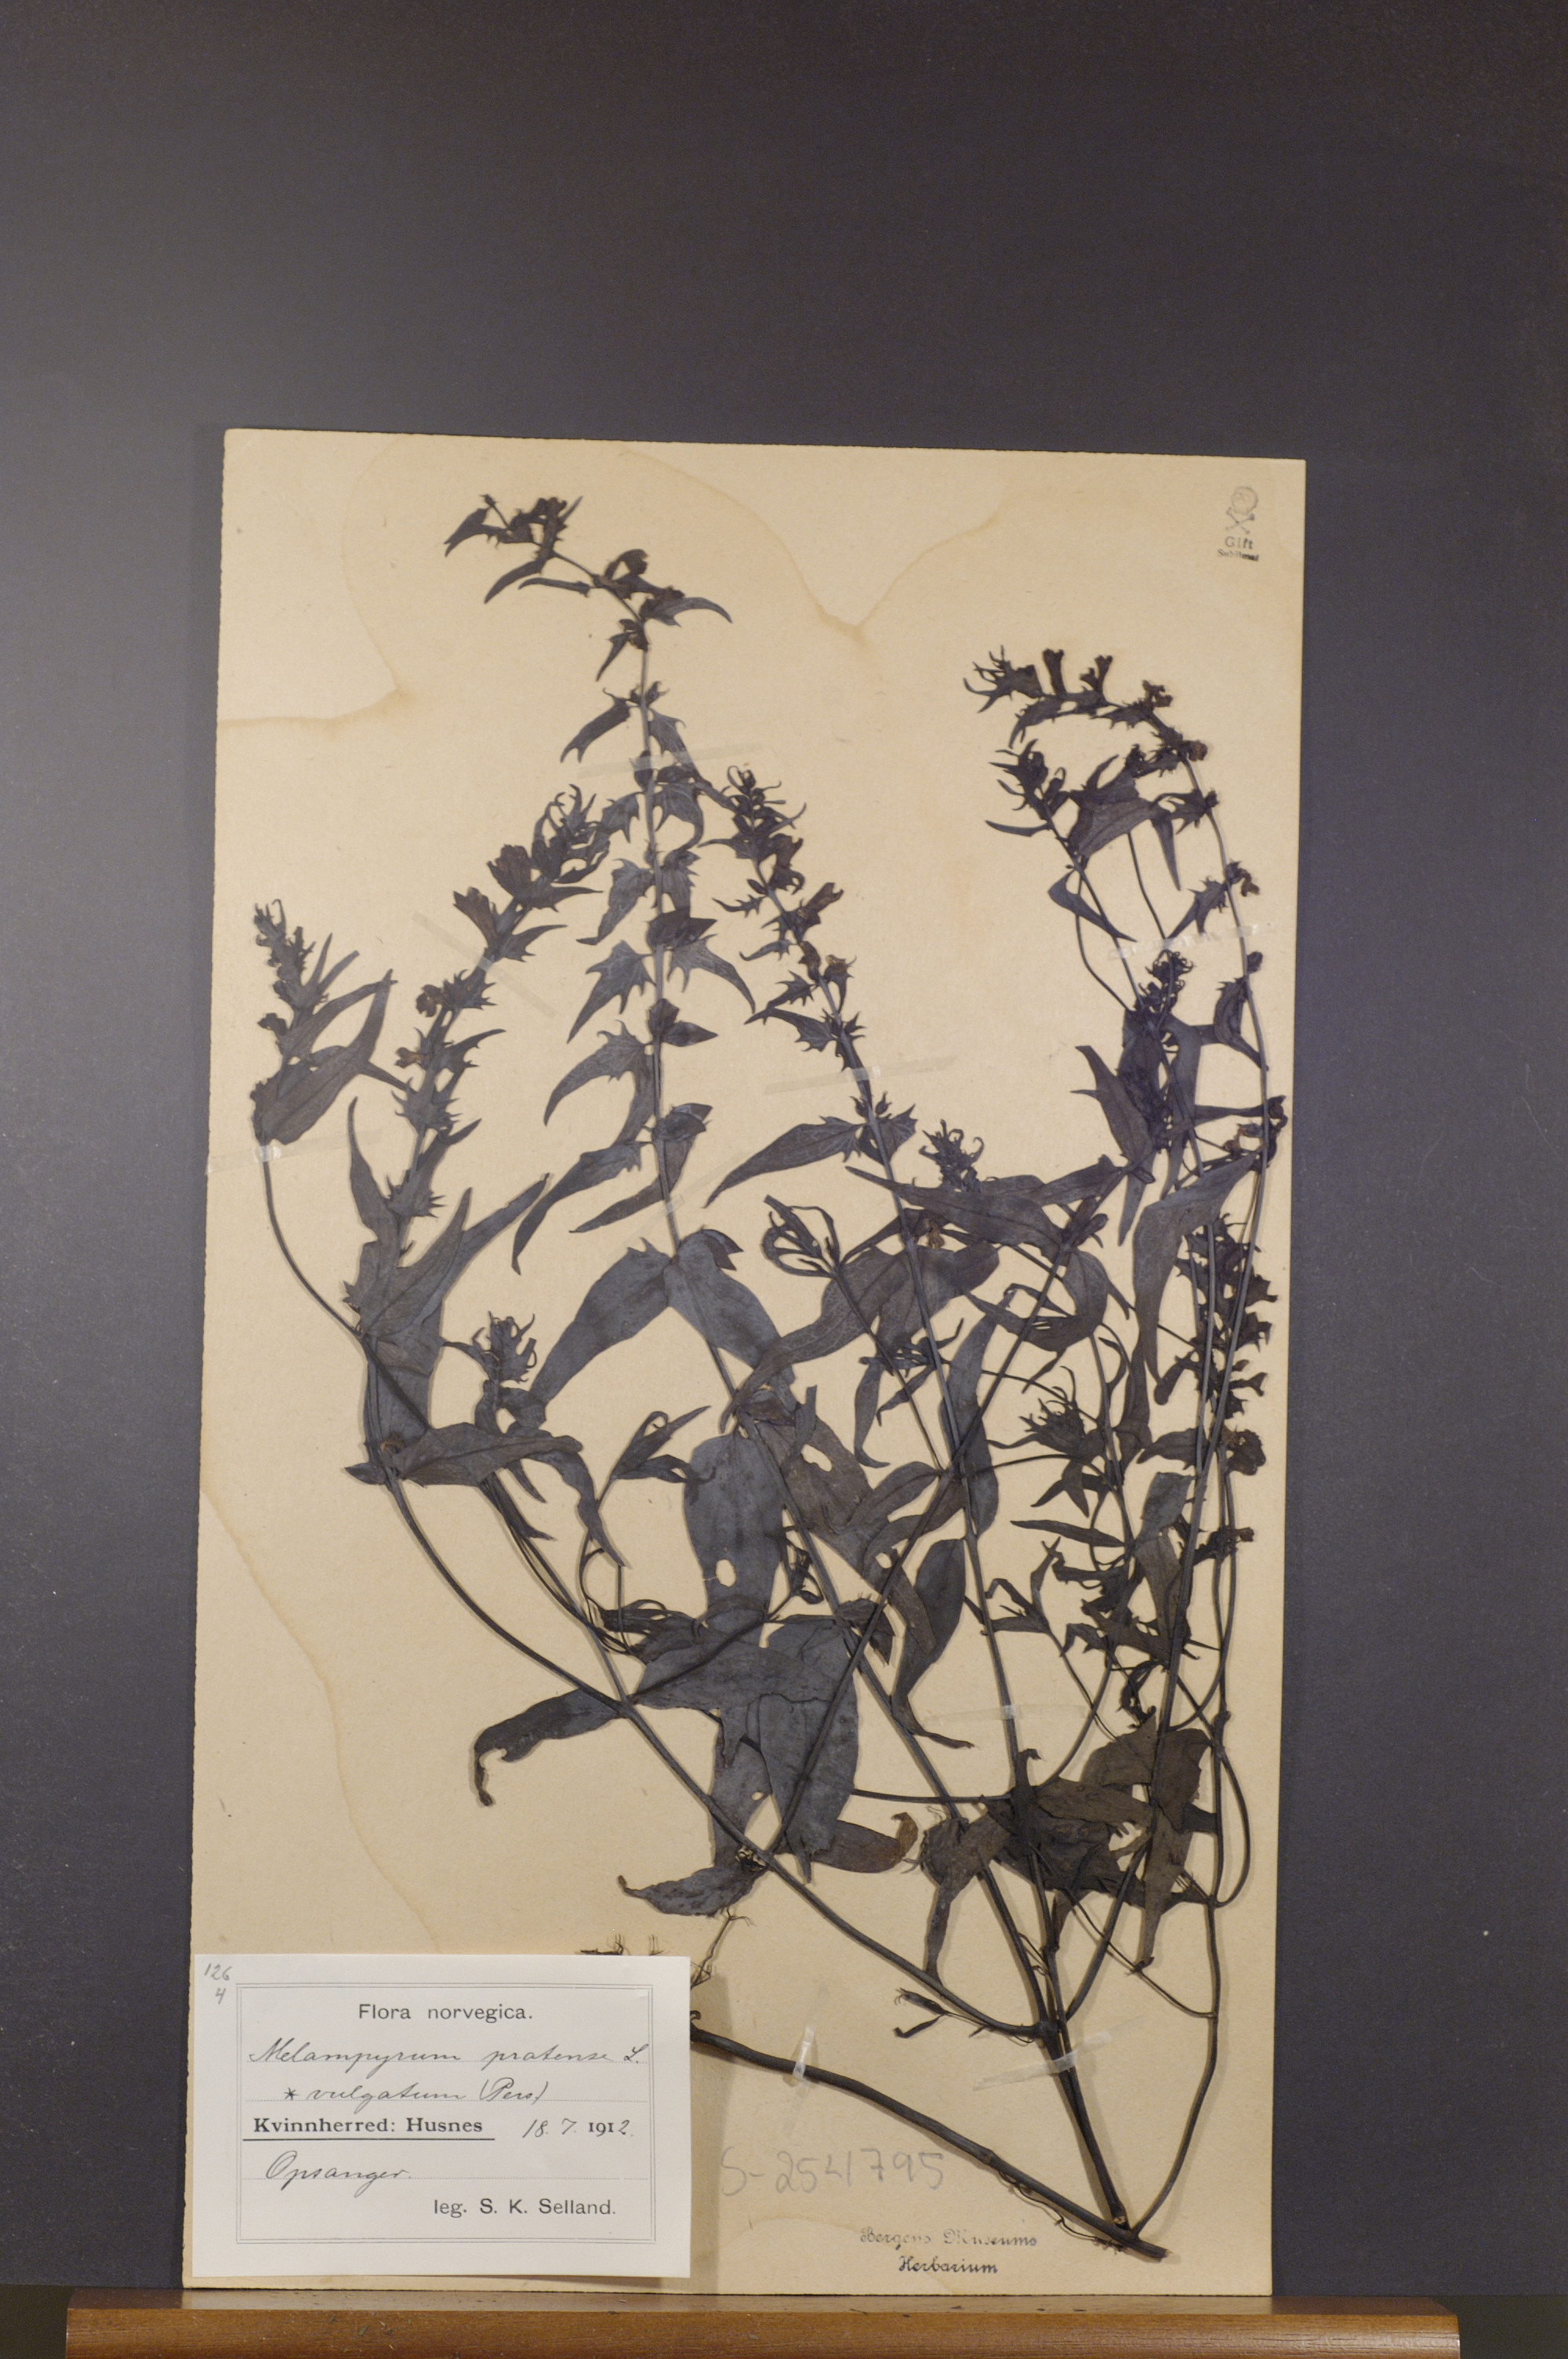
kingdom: Plantae
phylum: Tracheophyta
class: Magnoliopsida
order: Lamiales
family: Orobanchaceae
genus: Melampyrum
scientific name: Melampyrum pratense
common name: Common cow-wheat
